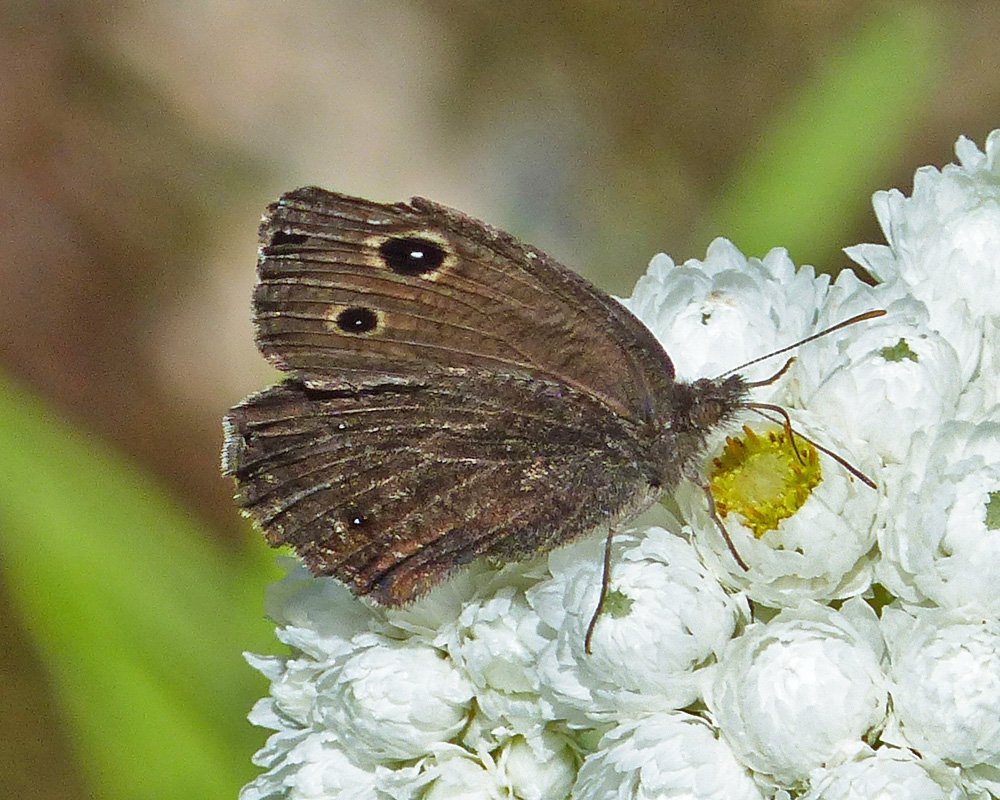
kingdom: Animalia
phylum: Arthropoda
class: Insecta
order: Lepidoptera
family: Nymphalidae
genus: Cercyonis
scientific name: Cercyonis oetus
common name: Small Wood-Nymph
